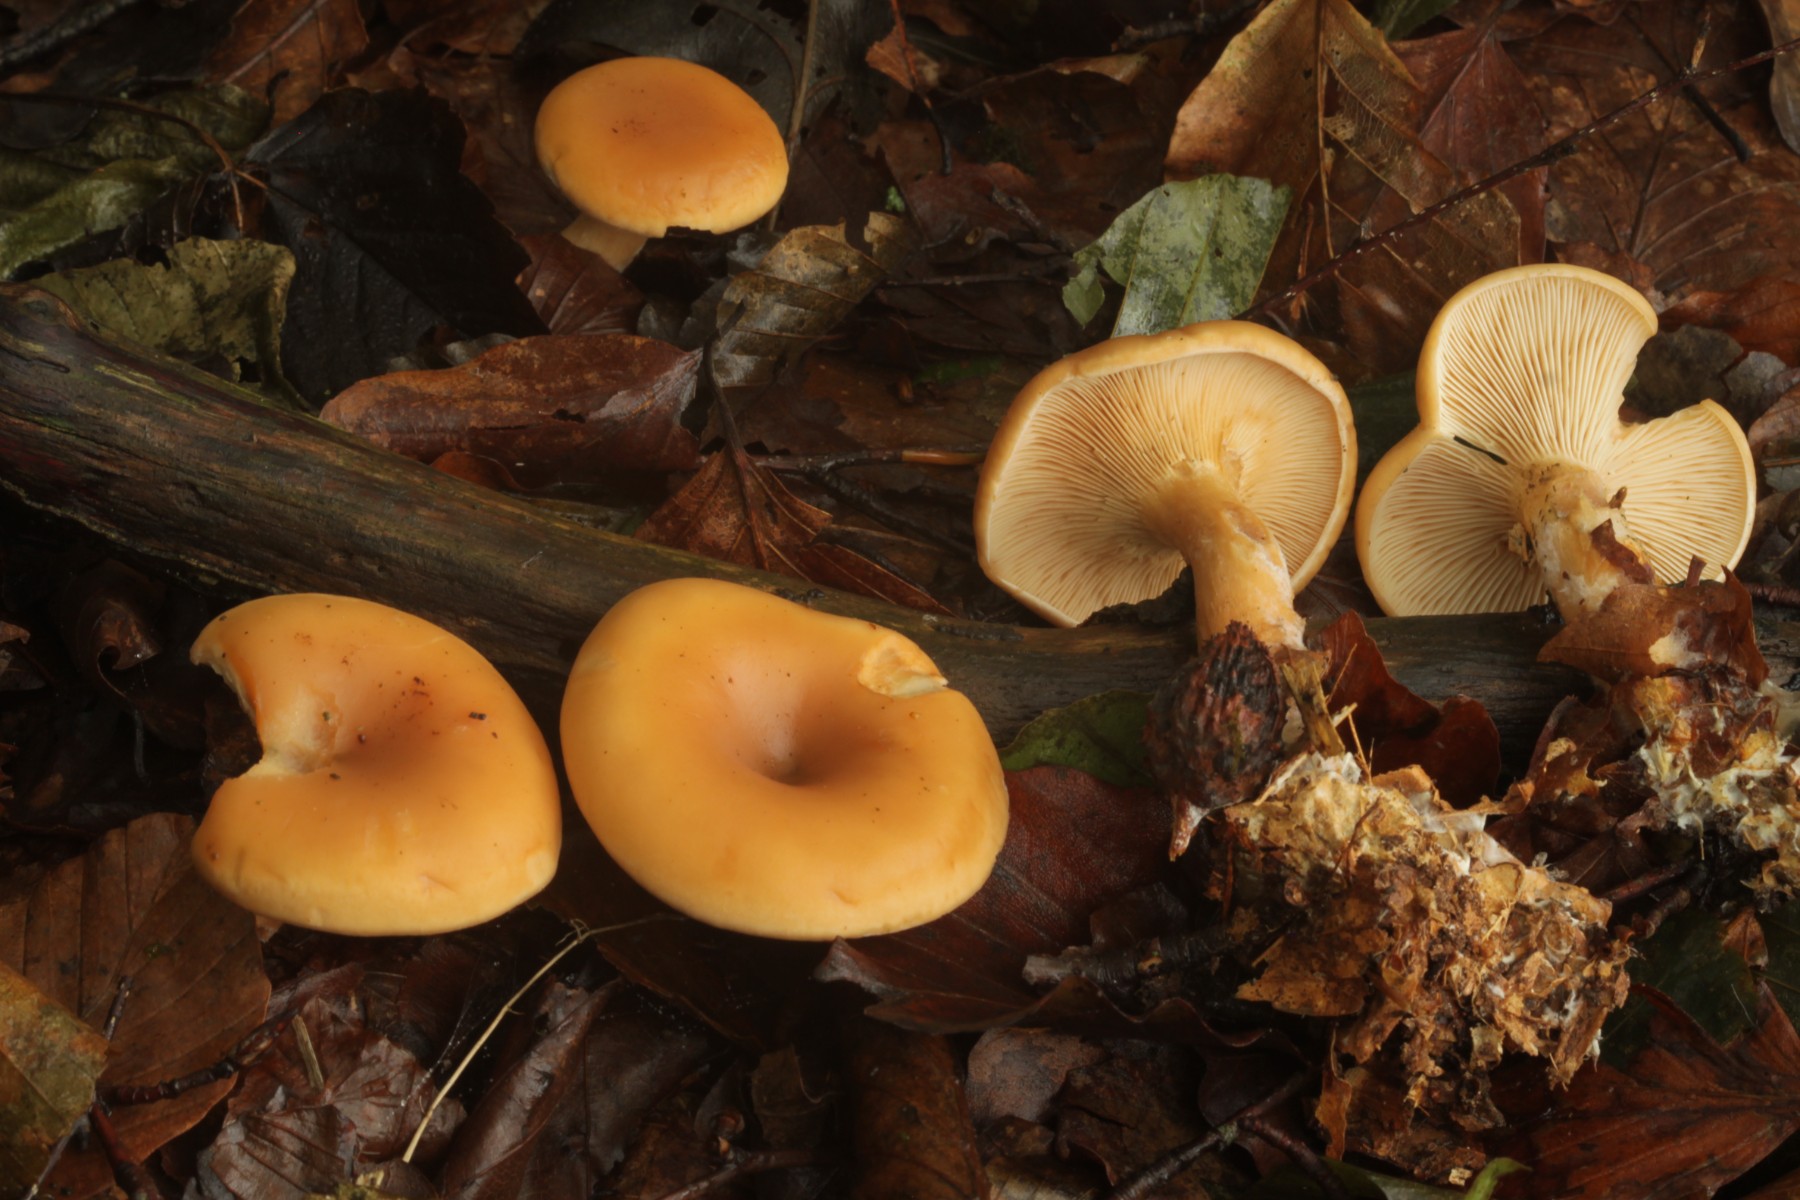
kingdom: Fungi
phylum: Basidiomycota
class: Agaricomycetes
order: Agaricales
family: Tricholomataceae
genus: Paralepista
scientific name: Paralepista flaccida
